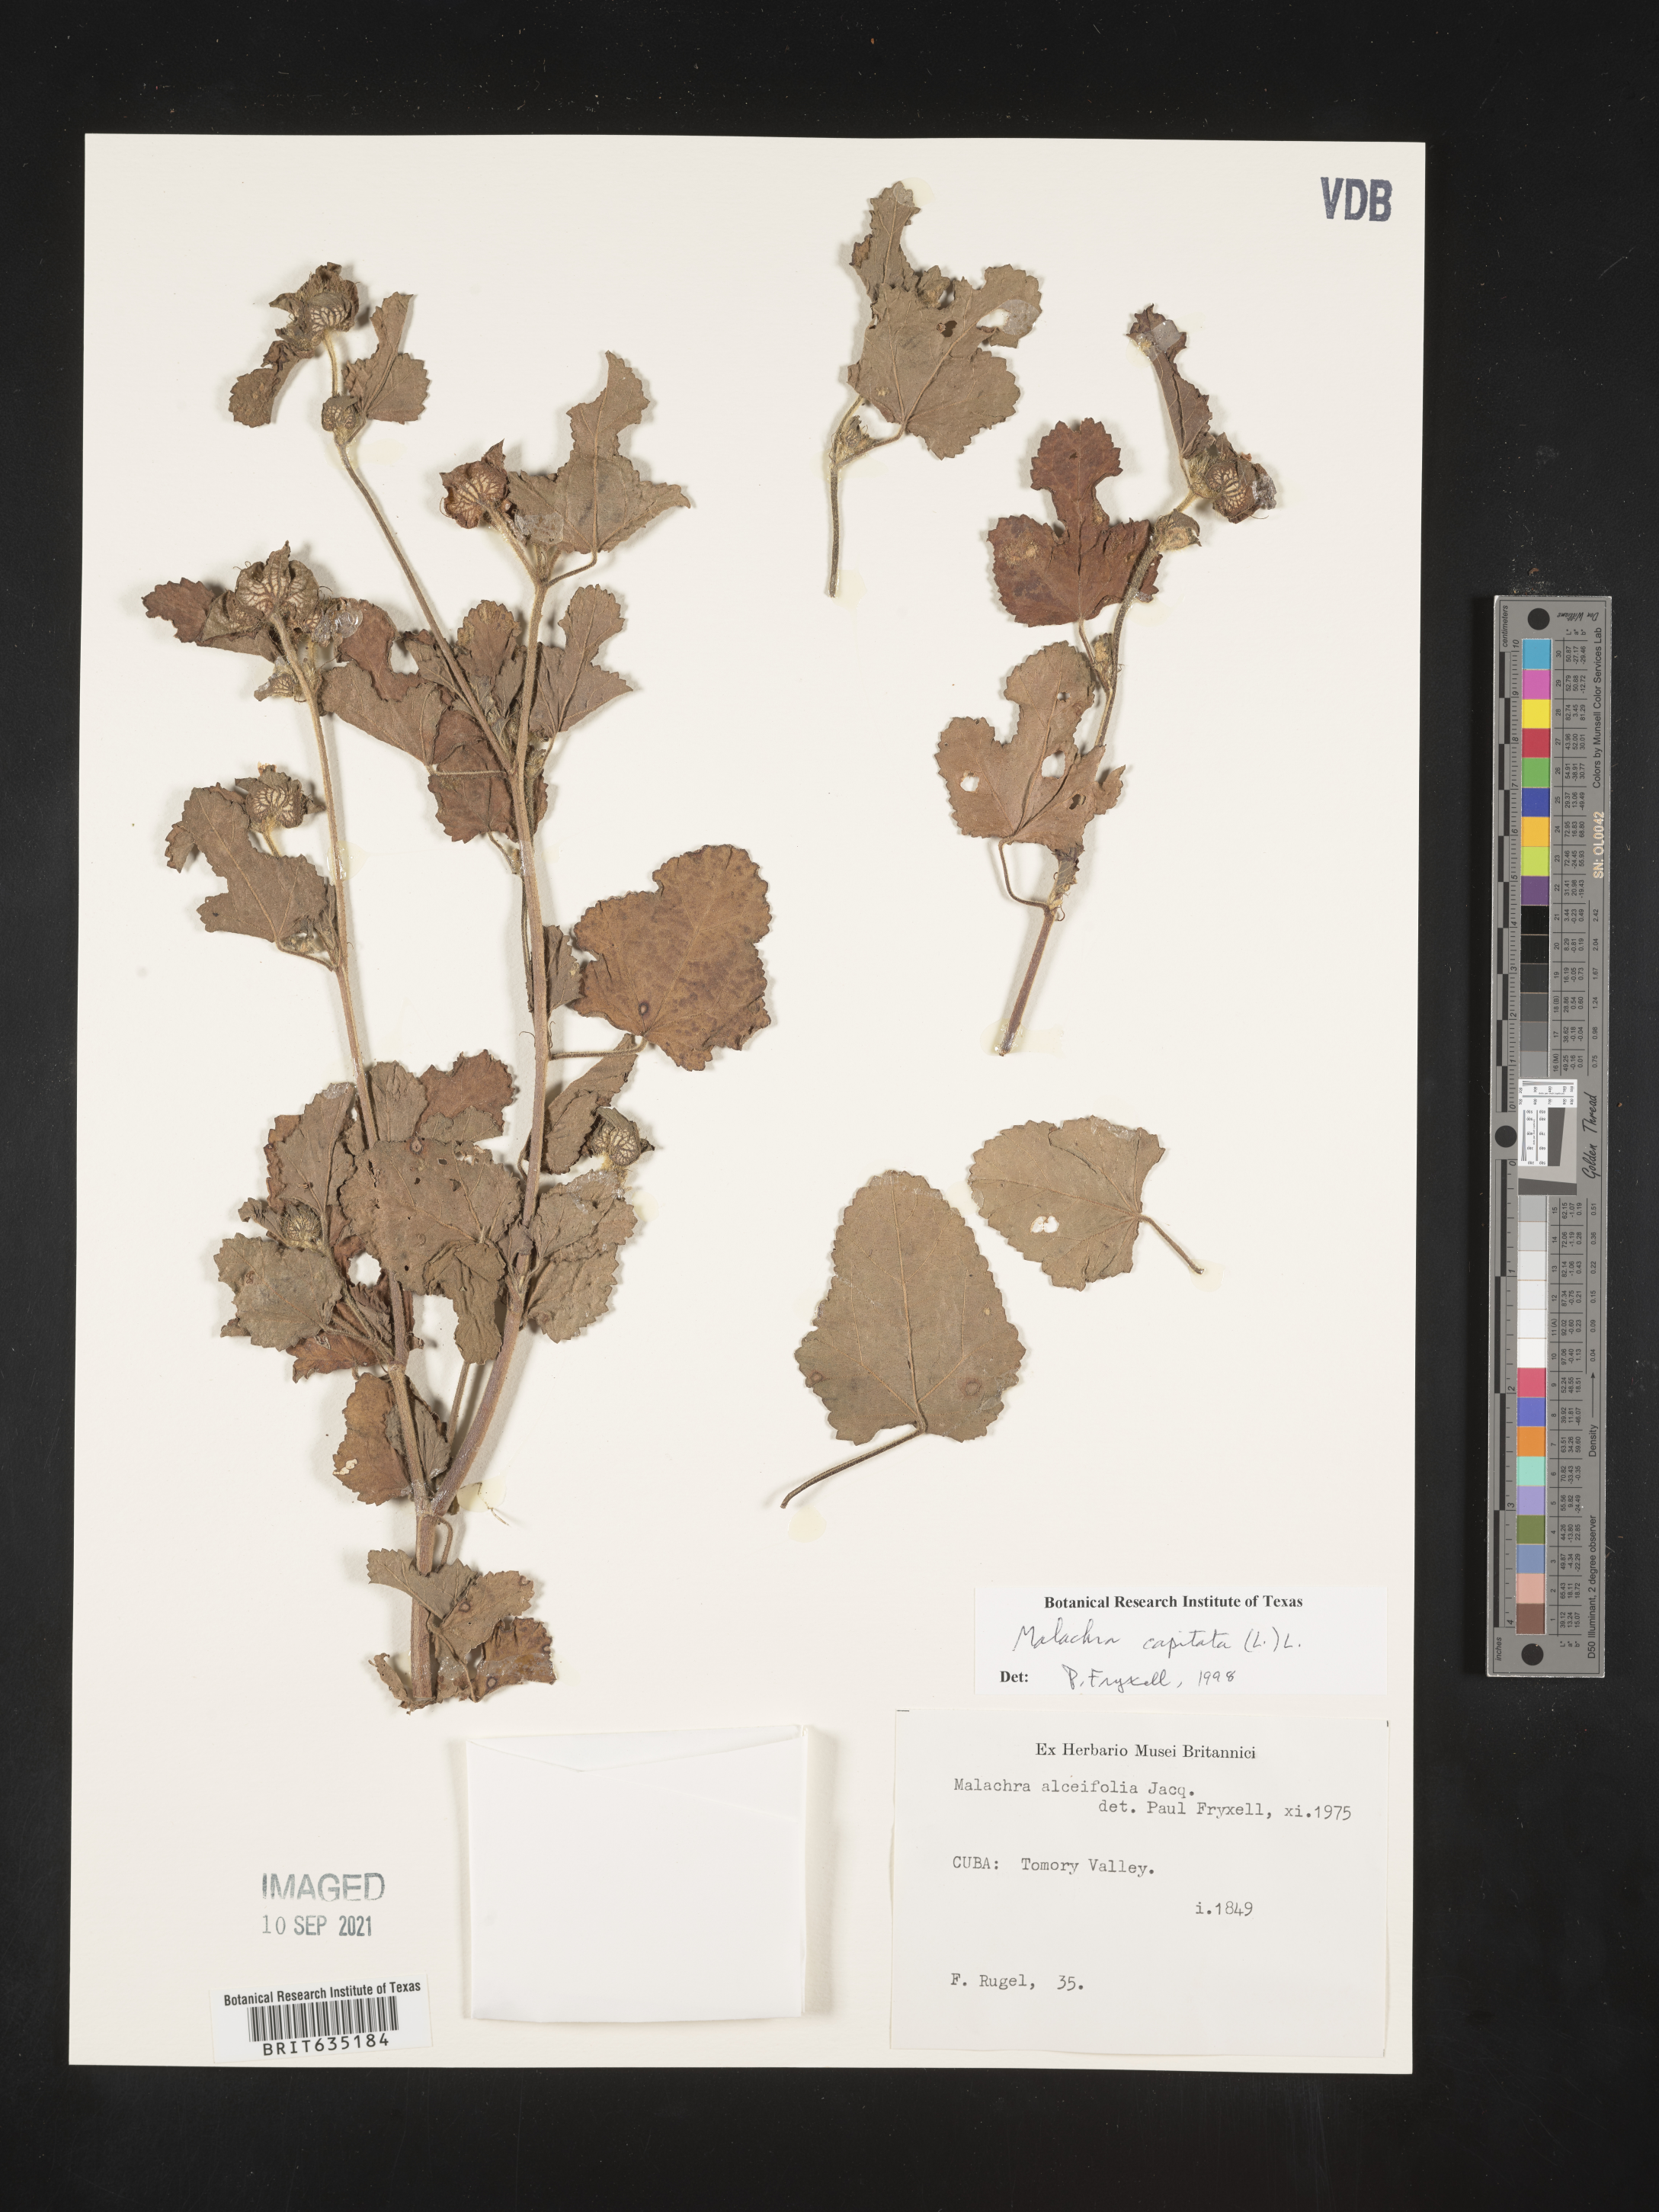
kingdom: Plantae
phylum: Tracheophyta
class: Magnoliopsida
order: Malvales
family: Malvaceae
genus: Malachra
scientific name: Malachra
